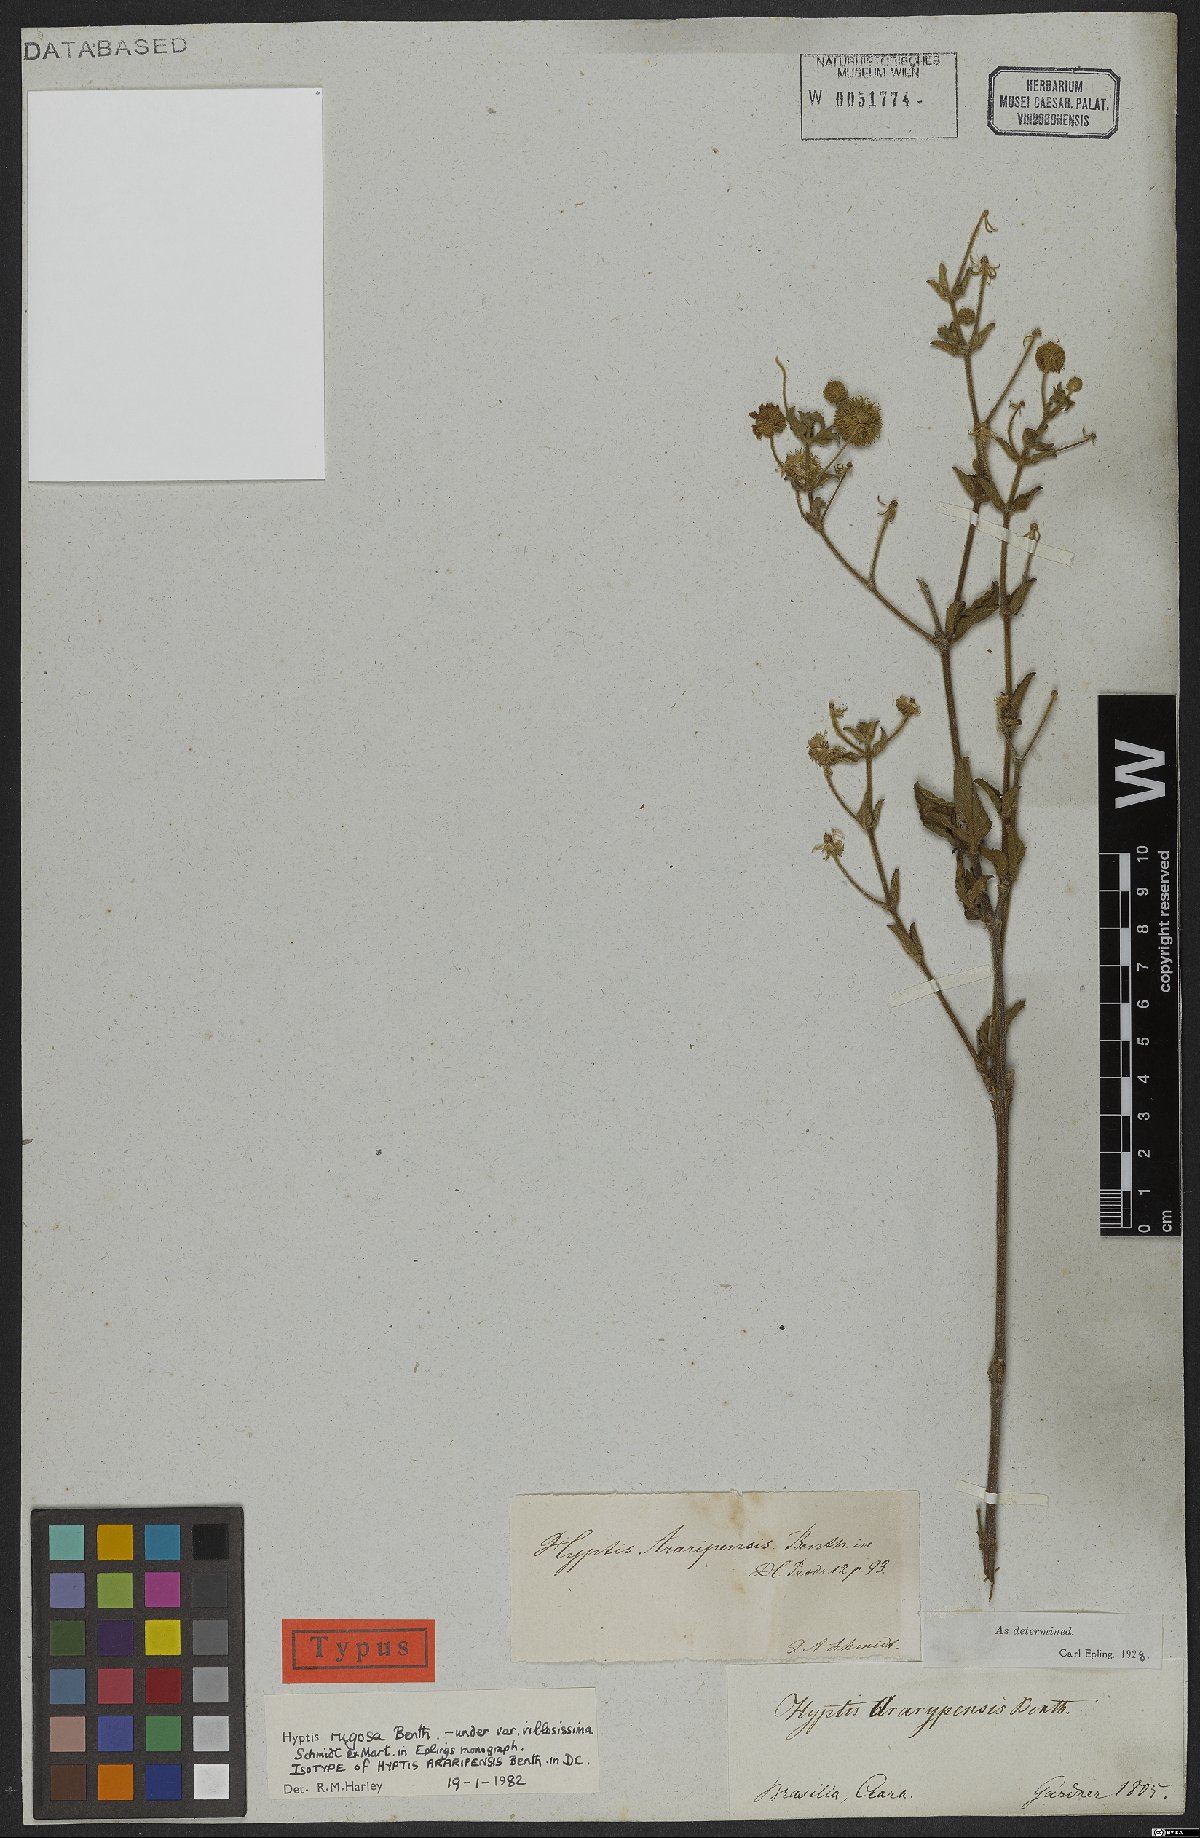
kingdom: Plantae
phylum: Tracheophyta
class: Magnoliopsida
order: Lamiales
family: Lamiaceae
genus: Cyanocephalus
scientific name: Cyanocephalus rugosus
